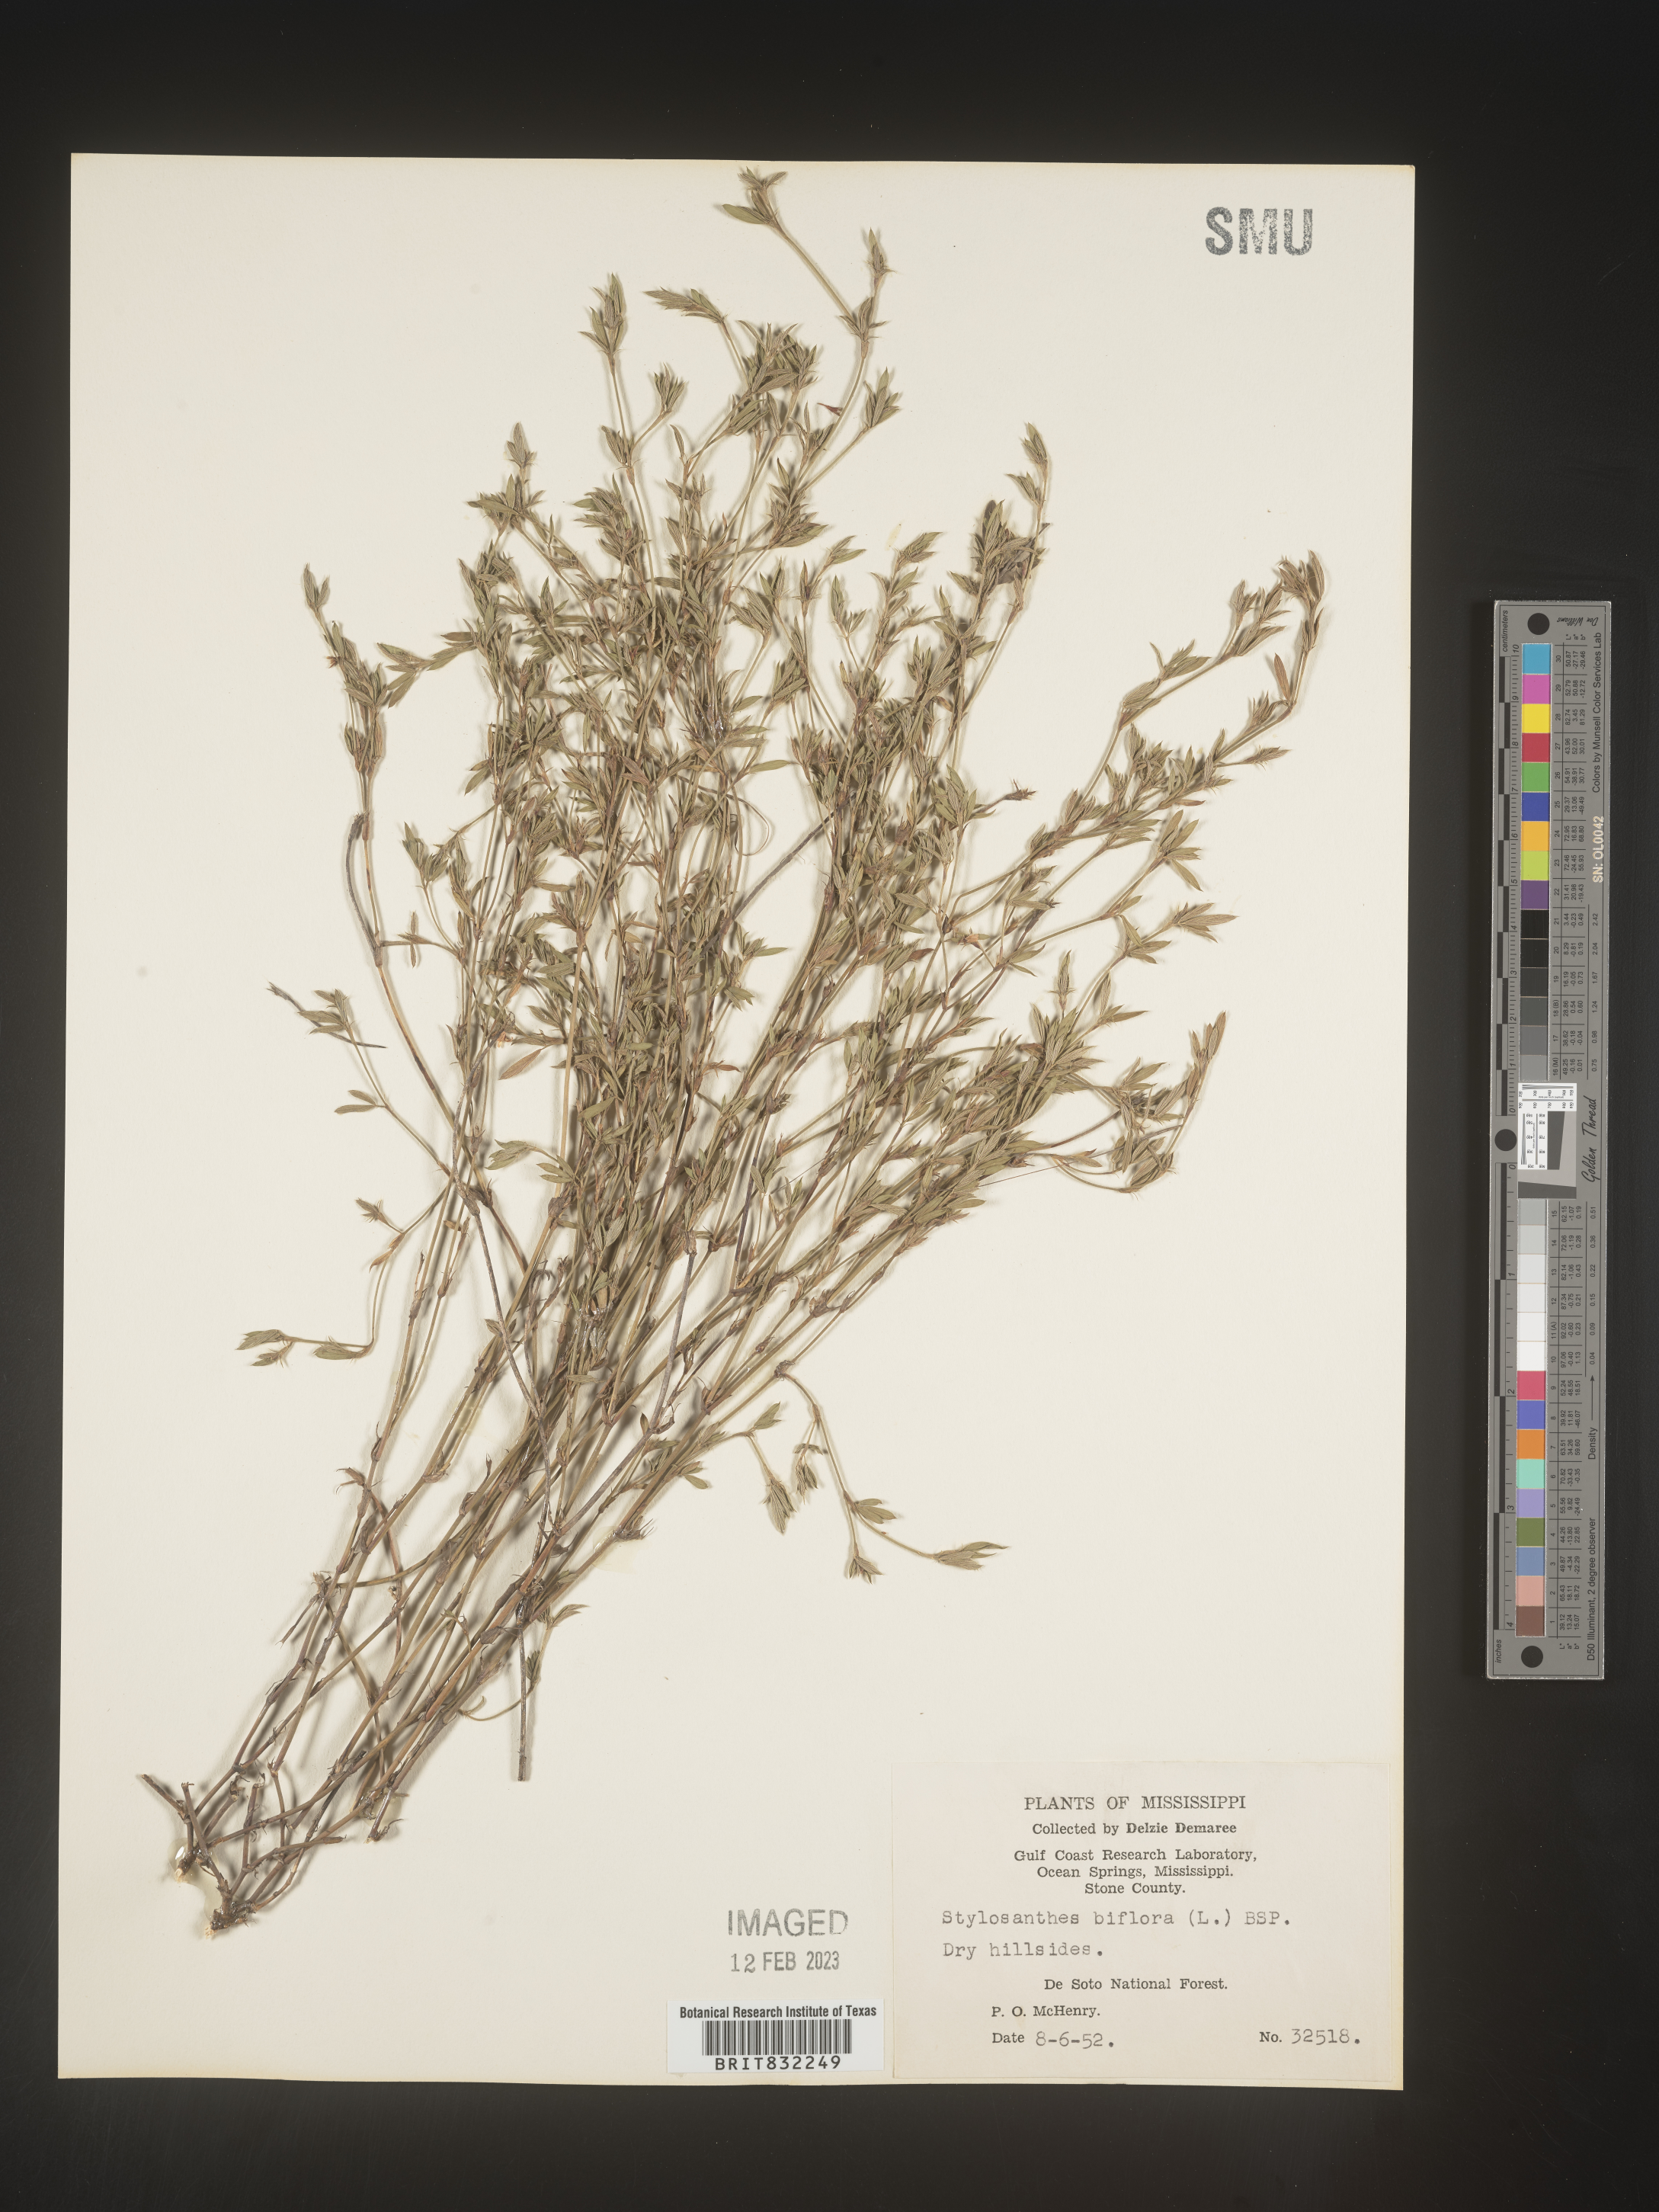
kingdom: Plantae
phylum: Tracheophyta
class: Magnoliopsida
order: Fabales
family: Fabaceae
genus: Stylosanthes
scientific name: Stylosanthes biflora
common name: Two-flower pencil-flower
